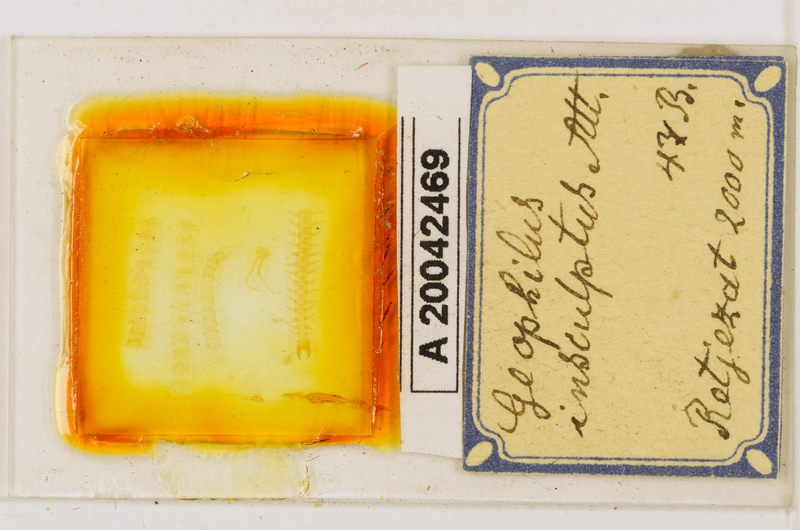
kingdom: Animalia
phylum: Arthropoda
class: Chilopoda
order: Geophilomorpha
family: Geophilidae
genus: Geophilus
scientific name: Geophilus insculptus
